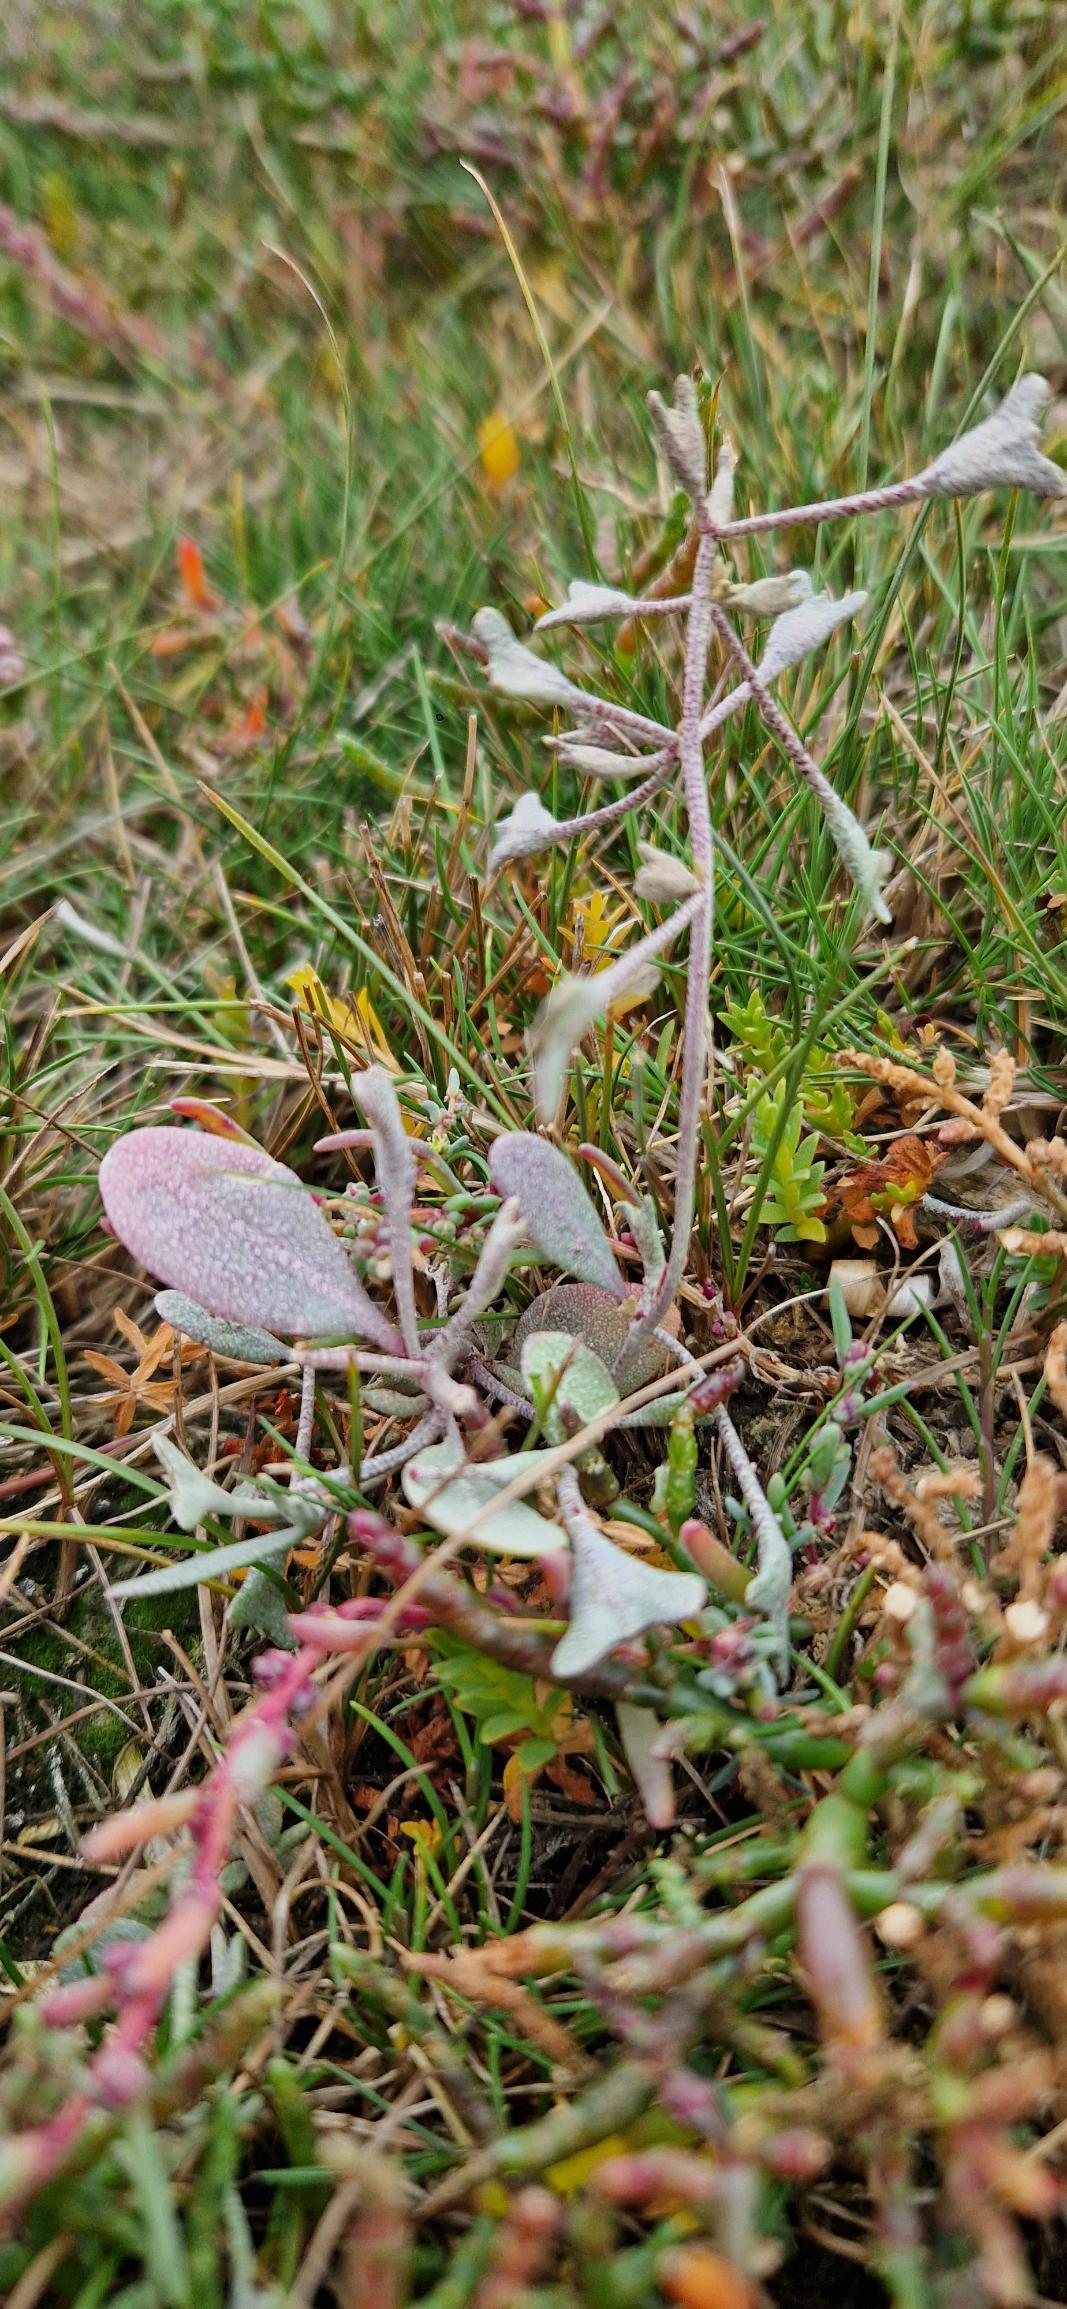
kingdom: Plantae
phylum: Tracheophyta
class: Magnoliopsida
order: Caryophyllales
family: Amaranthaceae
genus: Halimione
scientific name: Halimione pedunculata
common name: Stilket kilebæger
